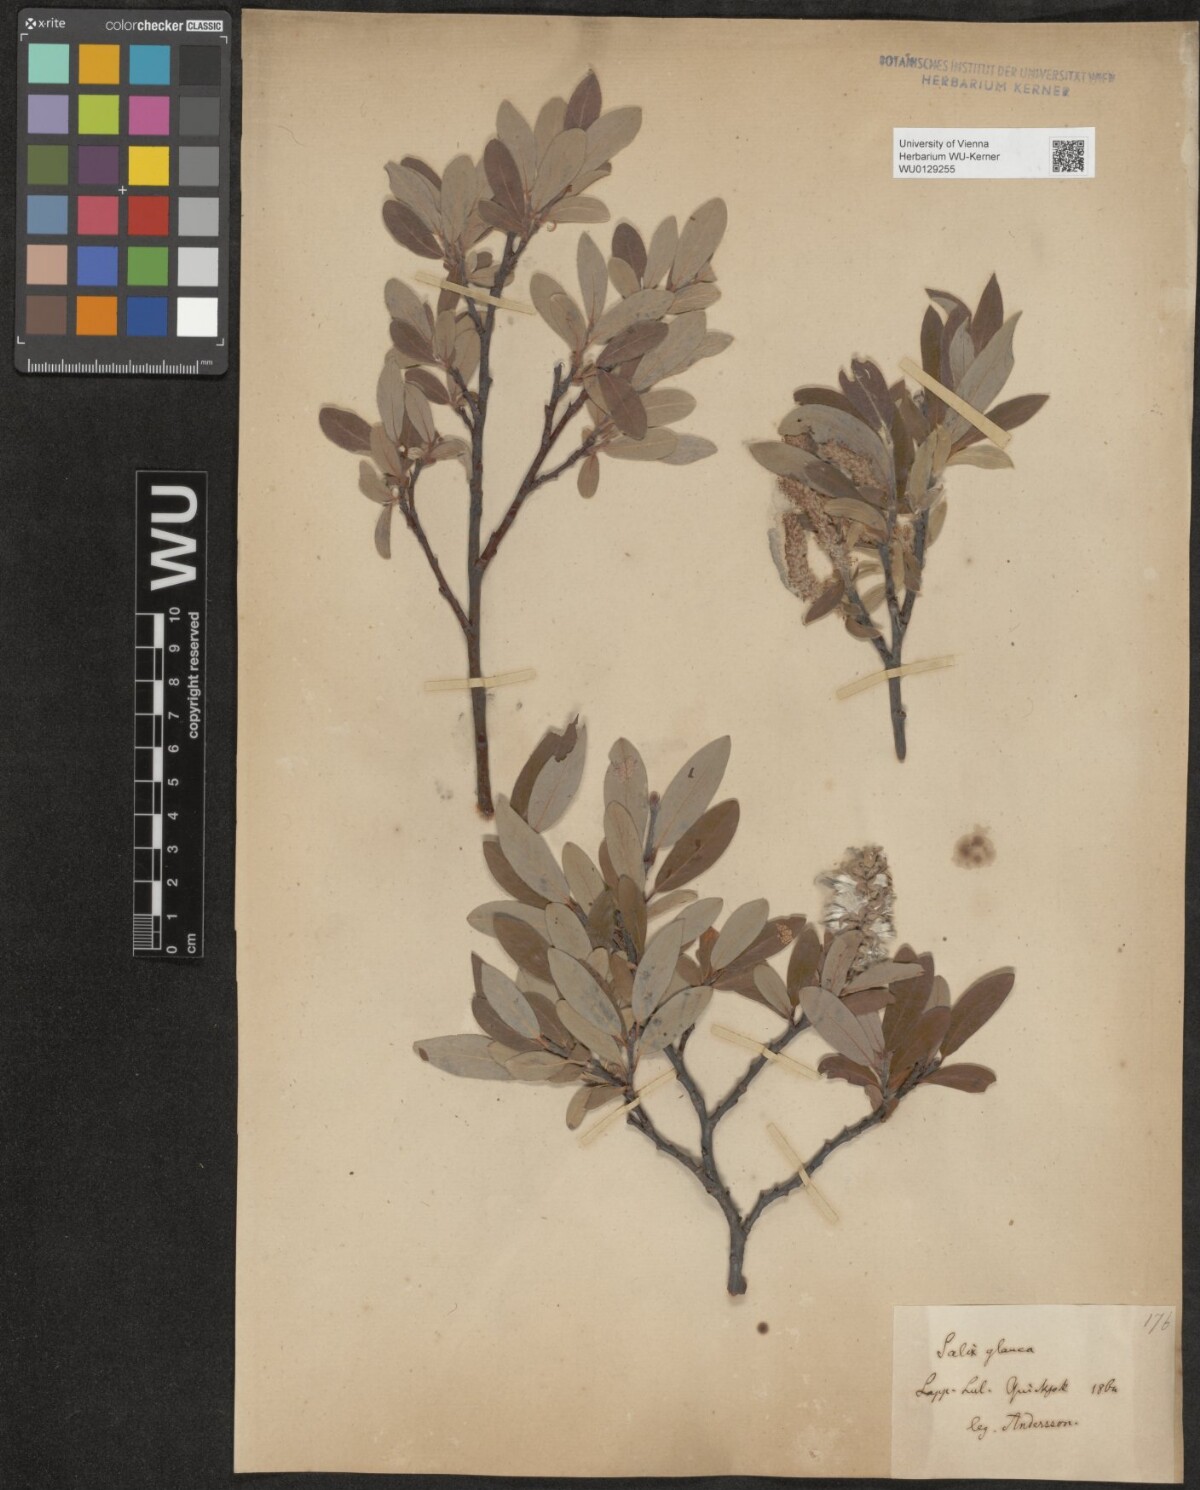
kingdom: Plantae
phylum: Tracheophyta
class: Magnoliopsida
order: Malpighiales
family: Salicaceae
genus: Salix
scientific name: Salix glauca
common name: Glaucous willow
